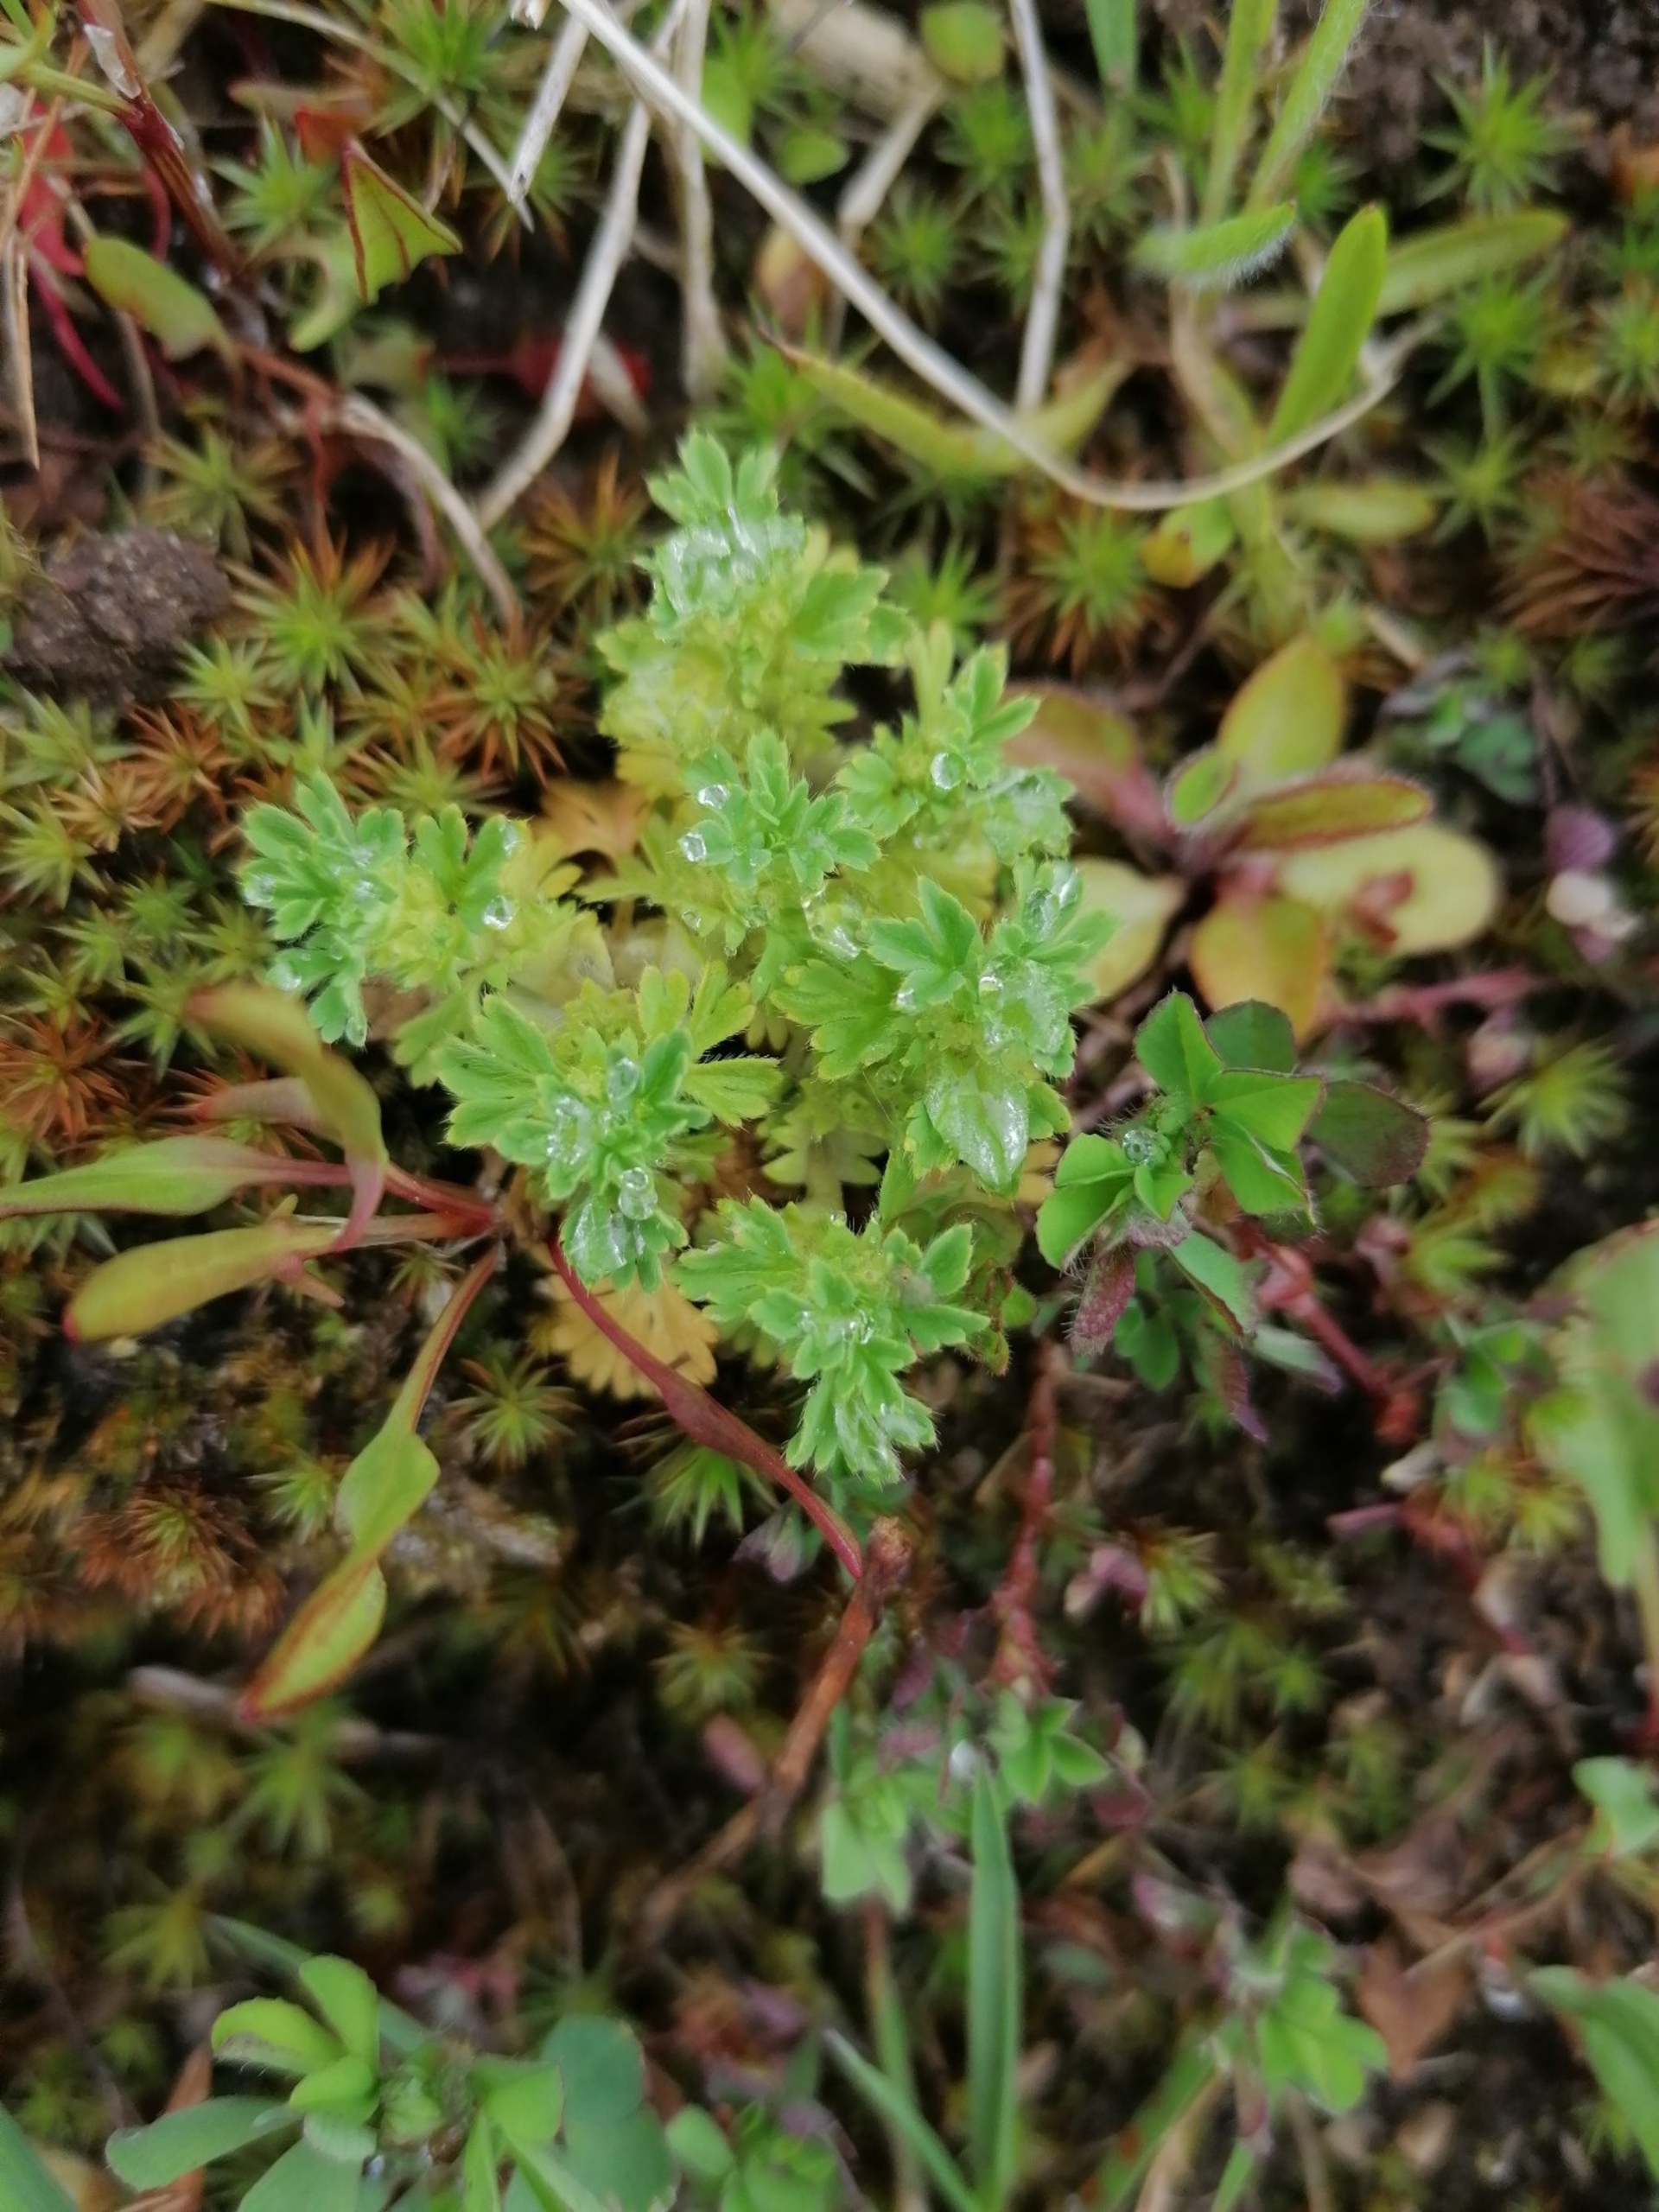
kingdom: Plantae
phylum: Tracheophyta
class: Magnoliopsida
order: Rosales
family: Rosaceae
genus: Aphanes
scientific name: Aphanes arvensis
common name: Dværgløvefod
